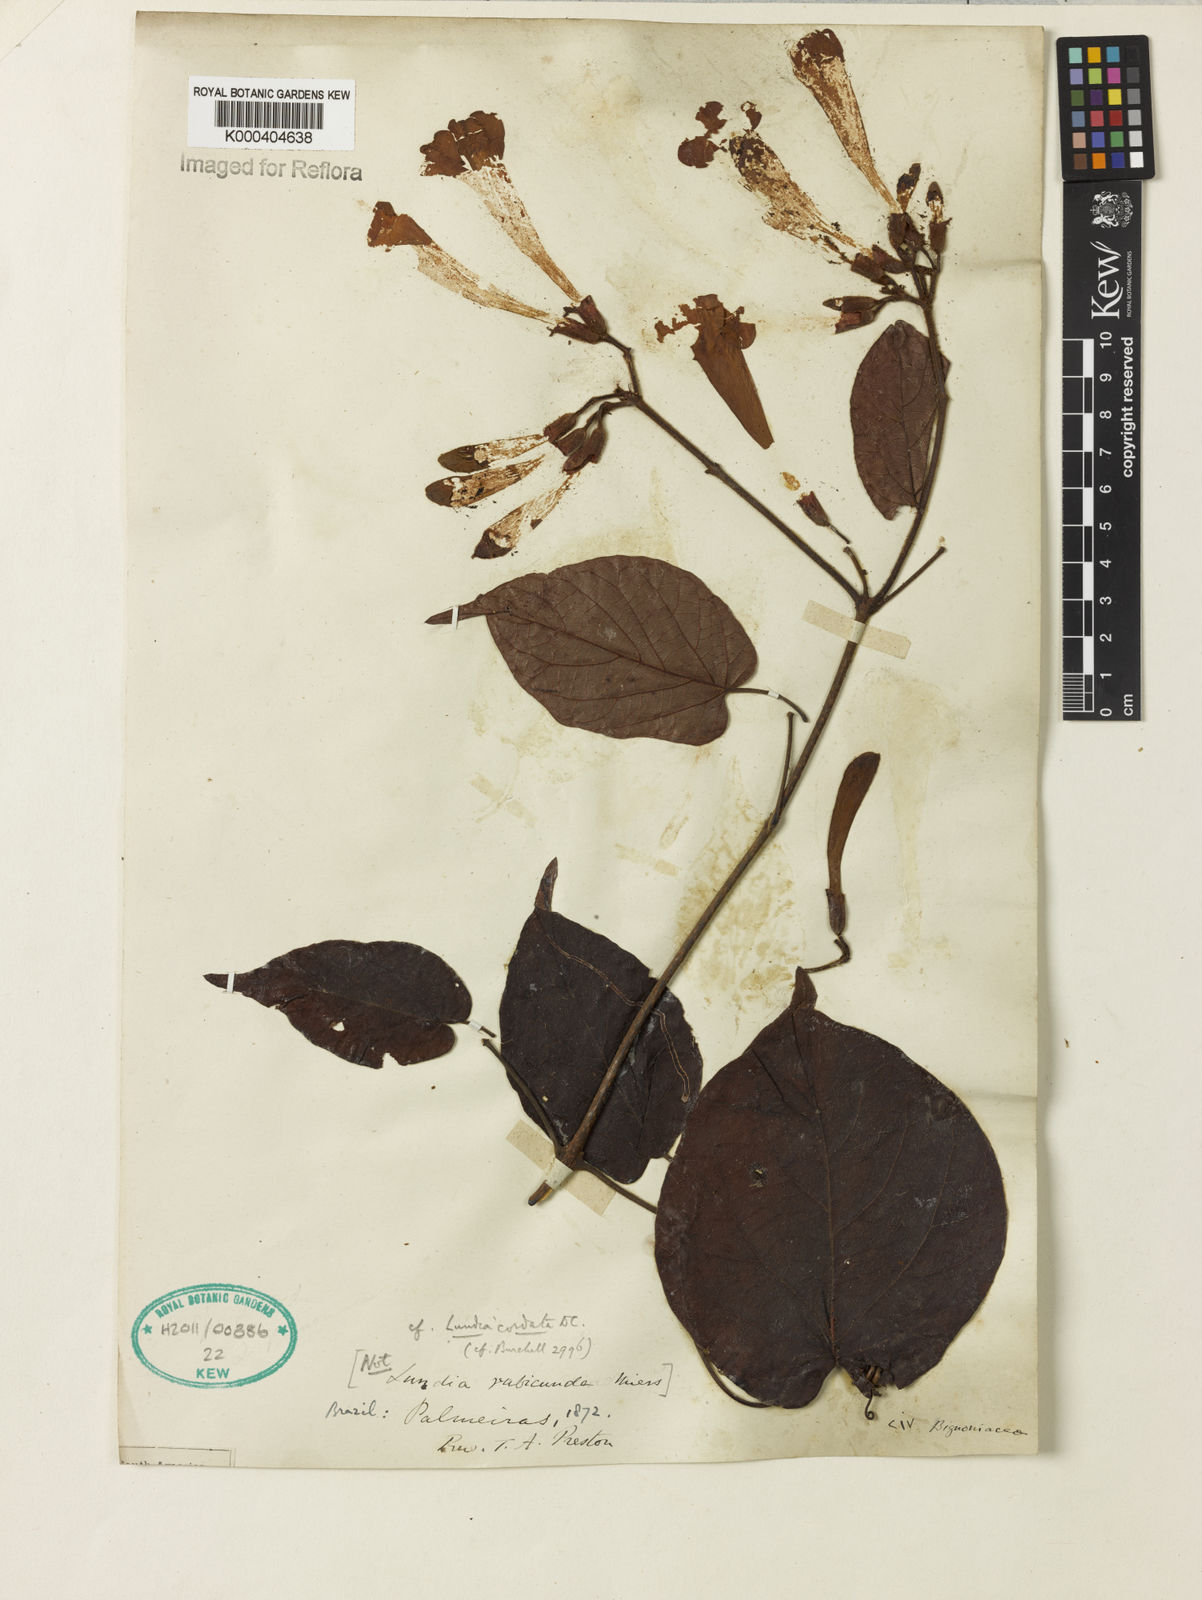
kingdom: Plantae
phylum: Tracheophyta
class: Magnoliopsida
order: Lamiales
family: Bignoniaceae
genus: Lundia
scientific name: Lundia corymbifera
